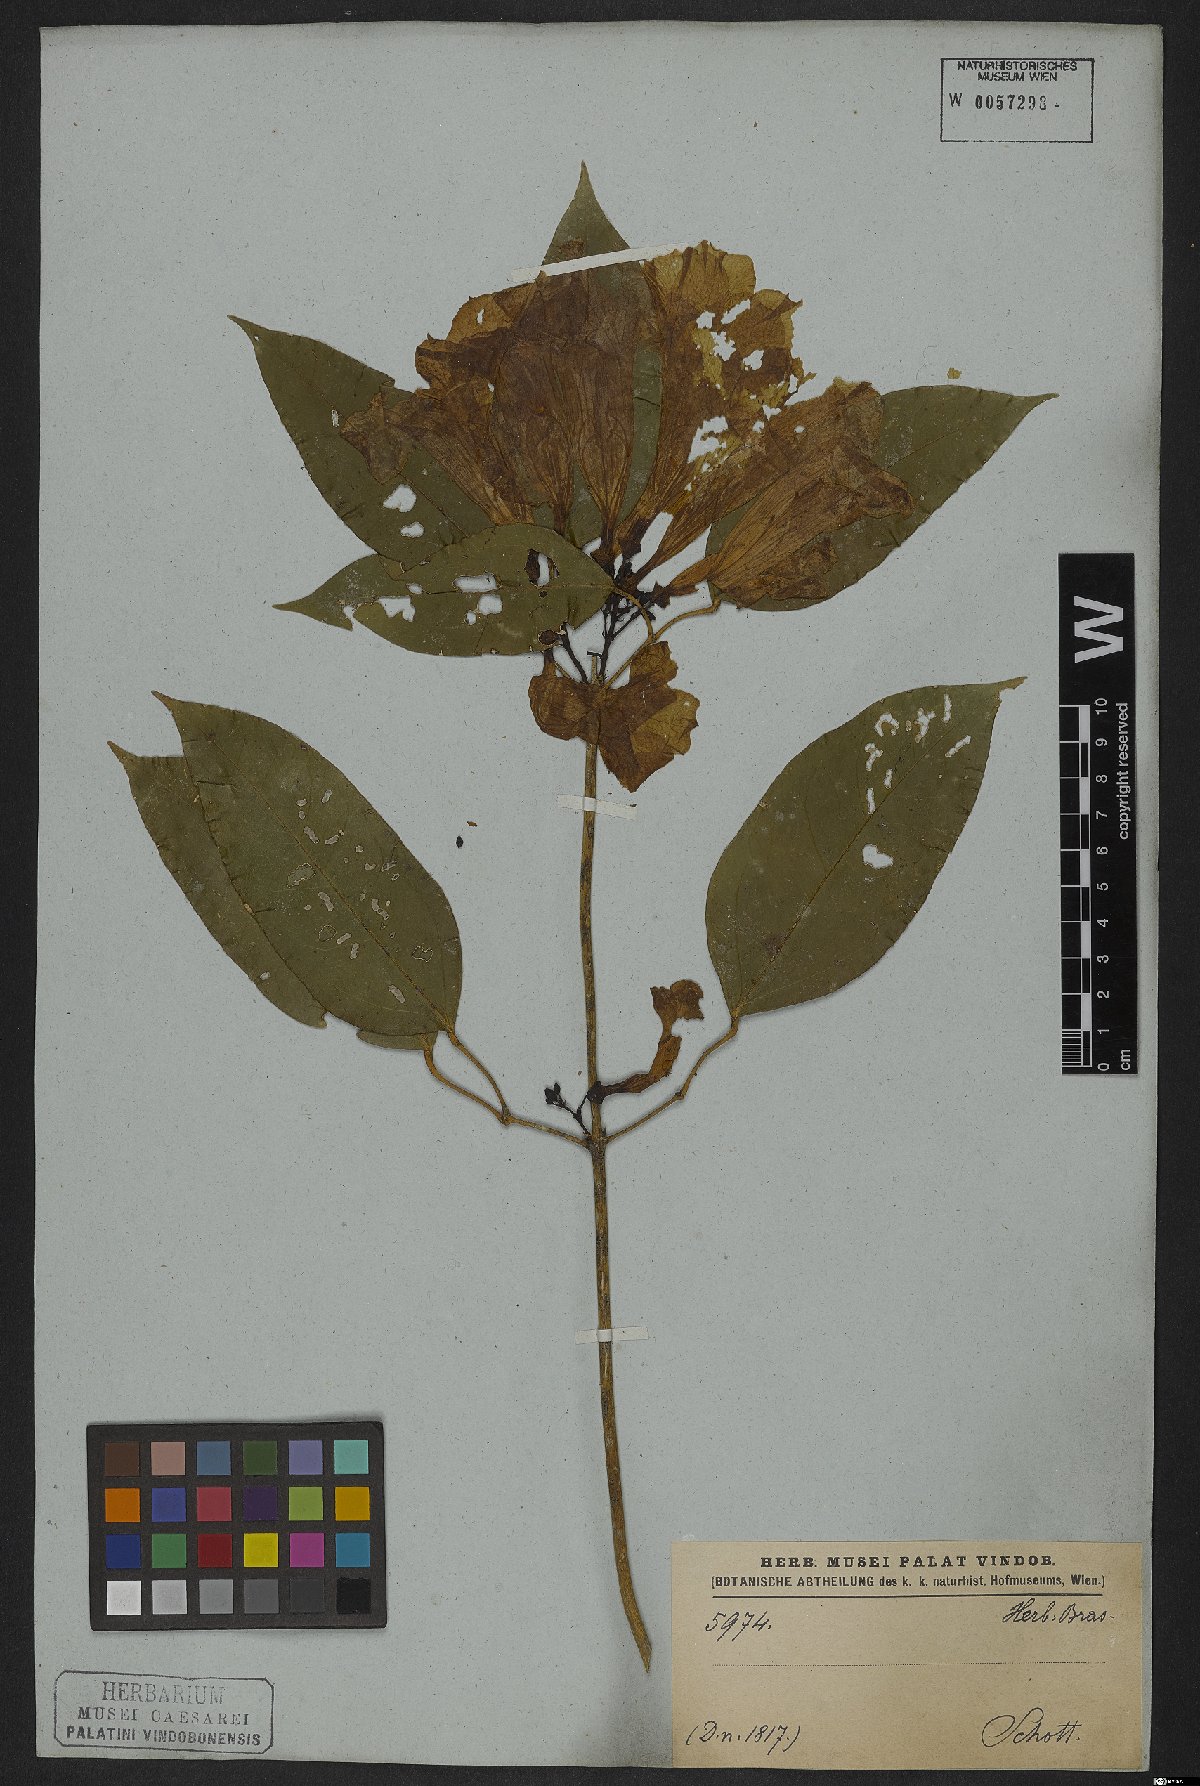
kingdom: Plantae
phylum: Tracheophyta
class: Magnoliopsida
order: Lamiales
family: Bignoniaceae
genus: Bignonia
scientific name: Bignonia sciruipabula
